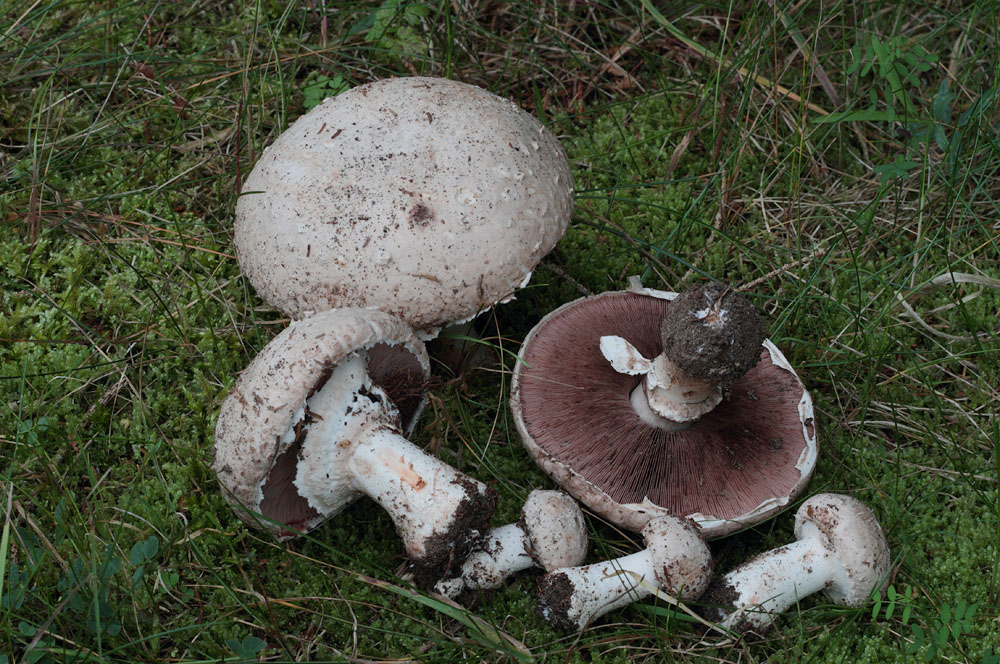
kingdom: Fungi
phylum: Basidiomycota
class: Agaricomycetes
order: Agaricales
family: Agaricaceae
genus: Agaricus
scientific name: Agaricus langei
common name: stor blod-champignon
